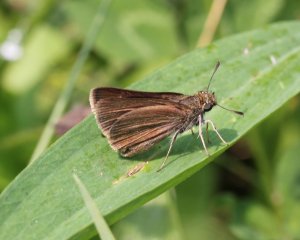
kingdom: Animalia
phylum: Arthropoda
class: Insecta
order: Lepidoptera
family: Hesperiidae
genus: Euphyes
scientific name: Euphyes bimacula
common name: Two-spotted Skipper
